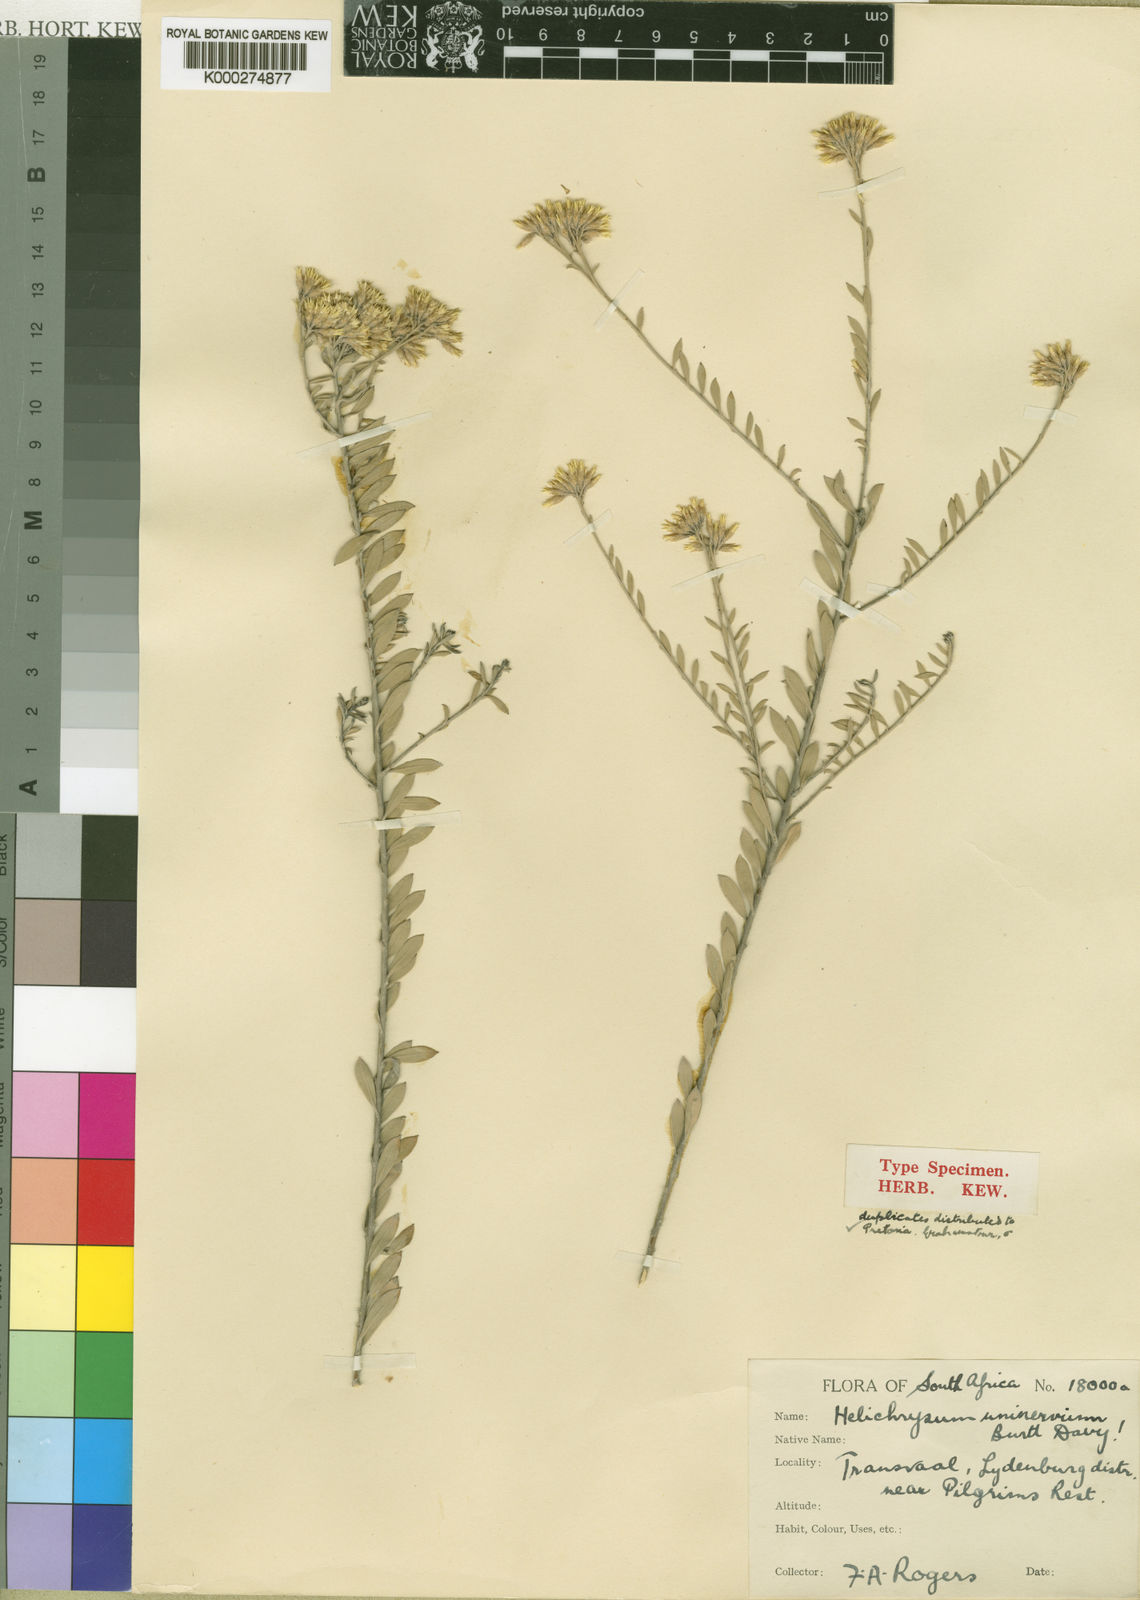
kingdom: Plantae
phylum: Tracheophyta
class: Magnoliopsida
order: Asterales
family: Asteraceae
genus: Helichrysum
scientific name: Helichrysum uninervium
